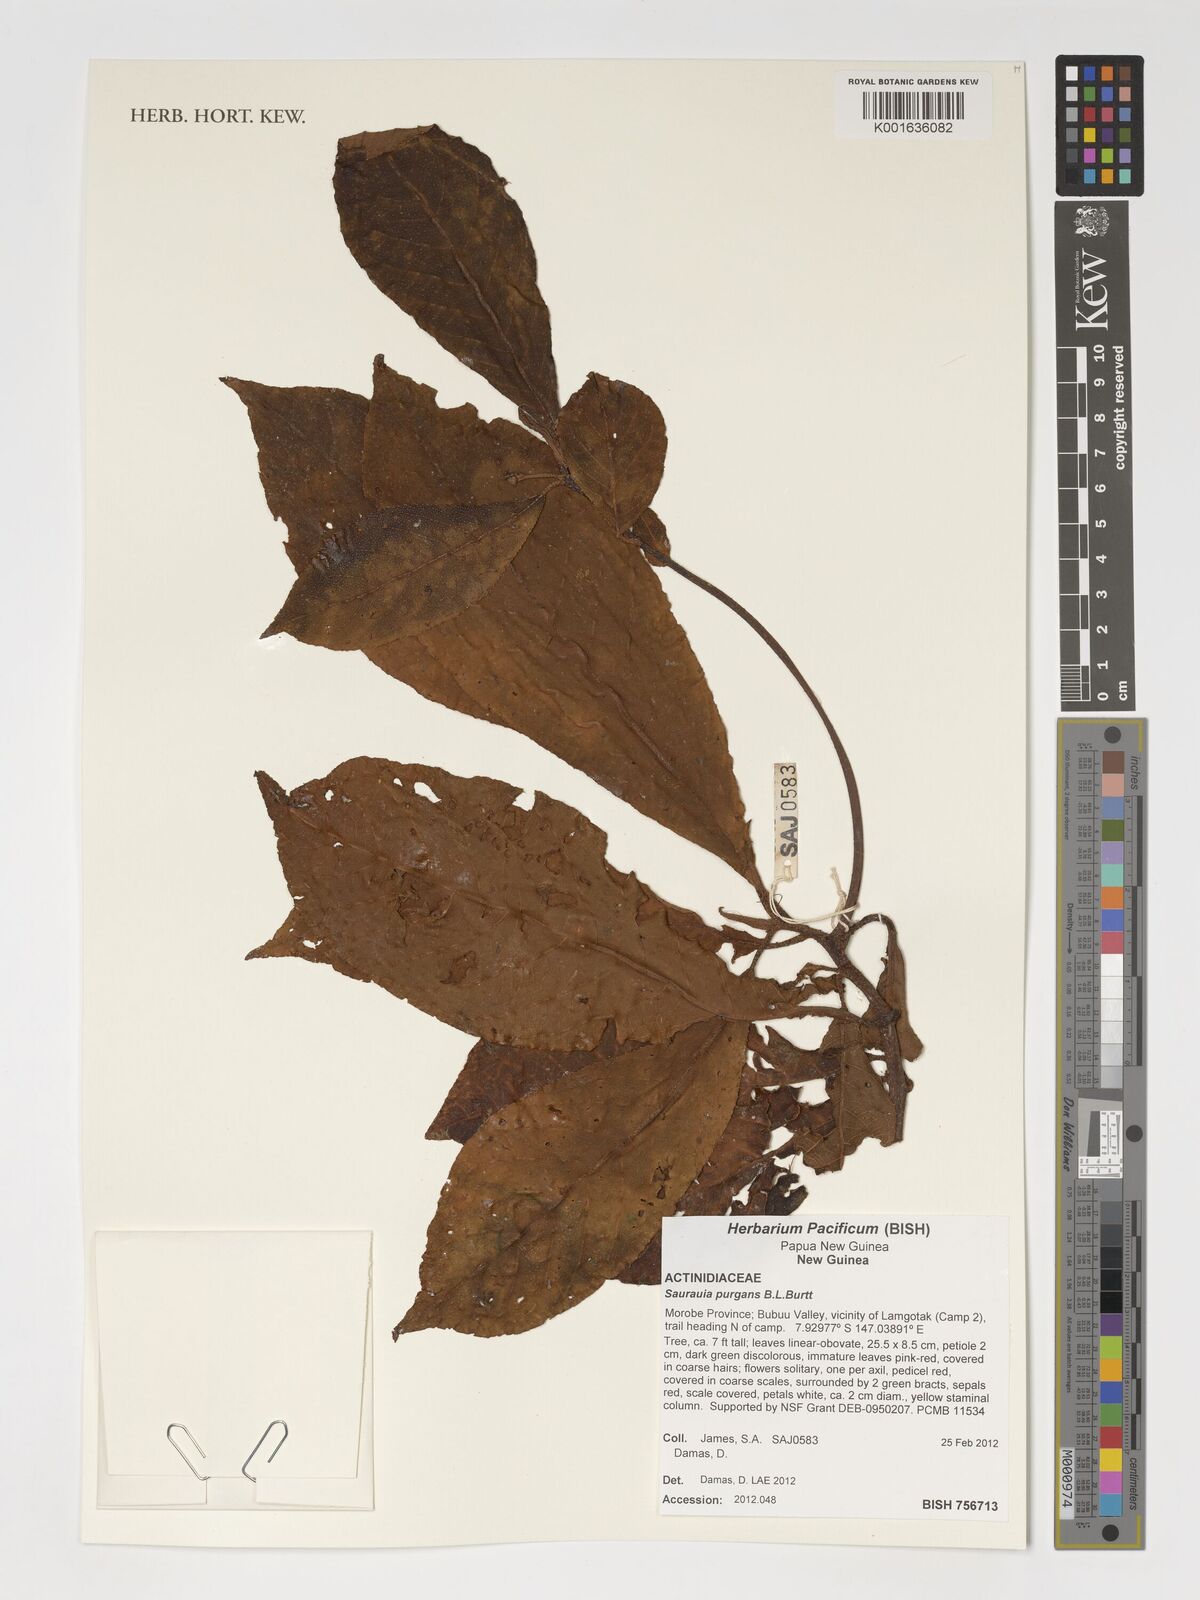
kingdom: Plantae
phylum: Tracheophyta
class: Magnoliopsida
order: Ericales
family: Actinidiaceae
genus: Saurauia
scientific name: Saurauia purgans
